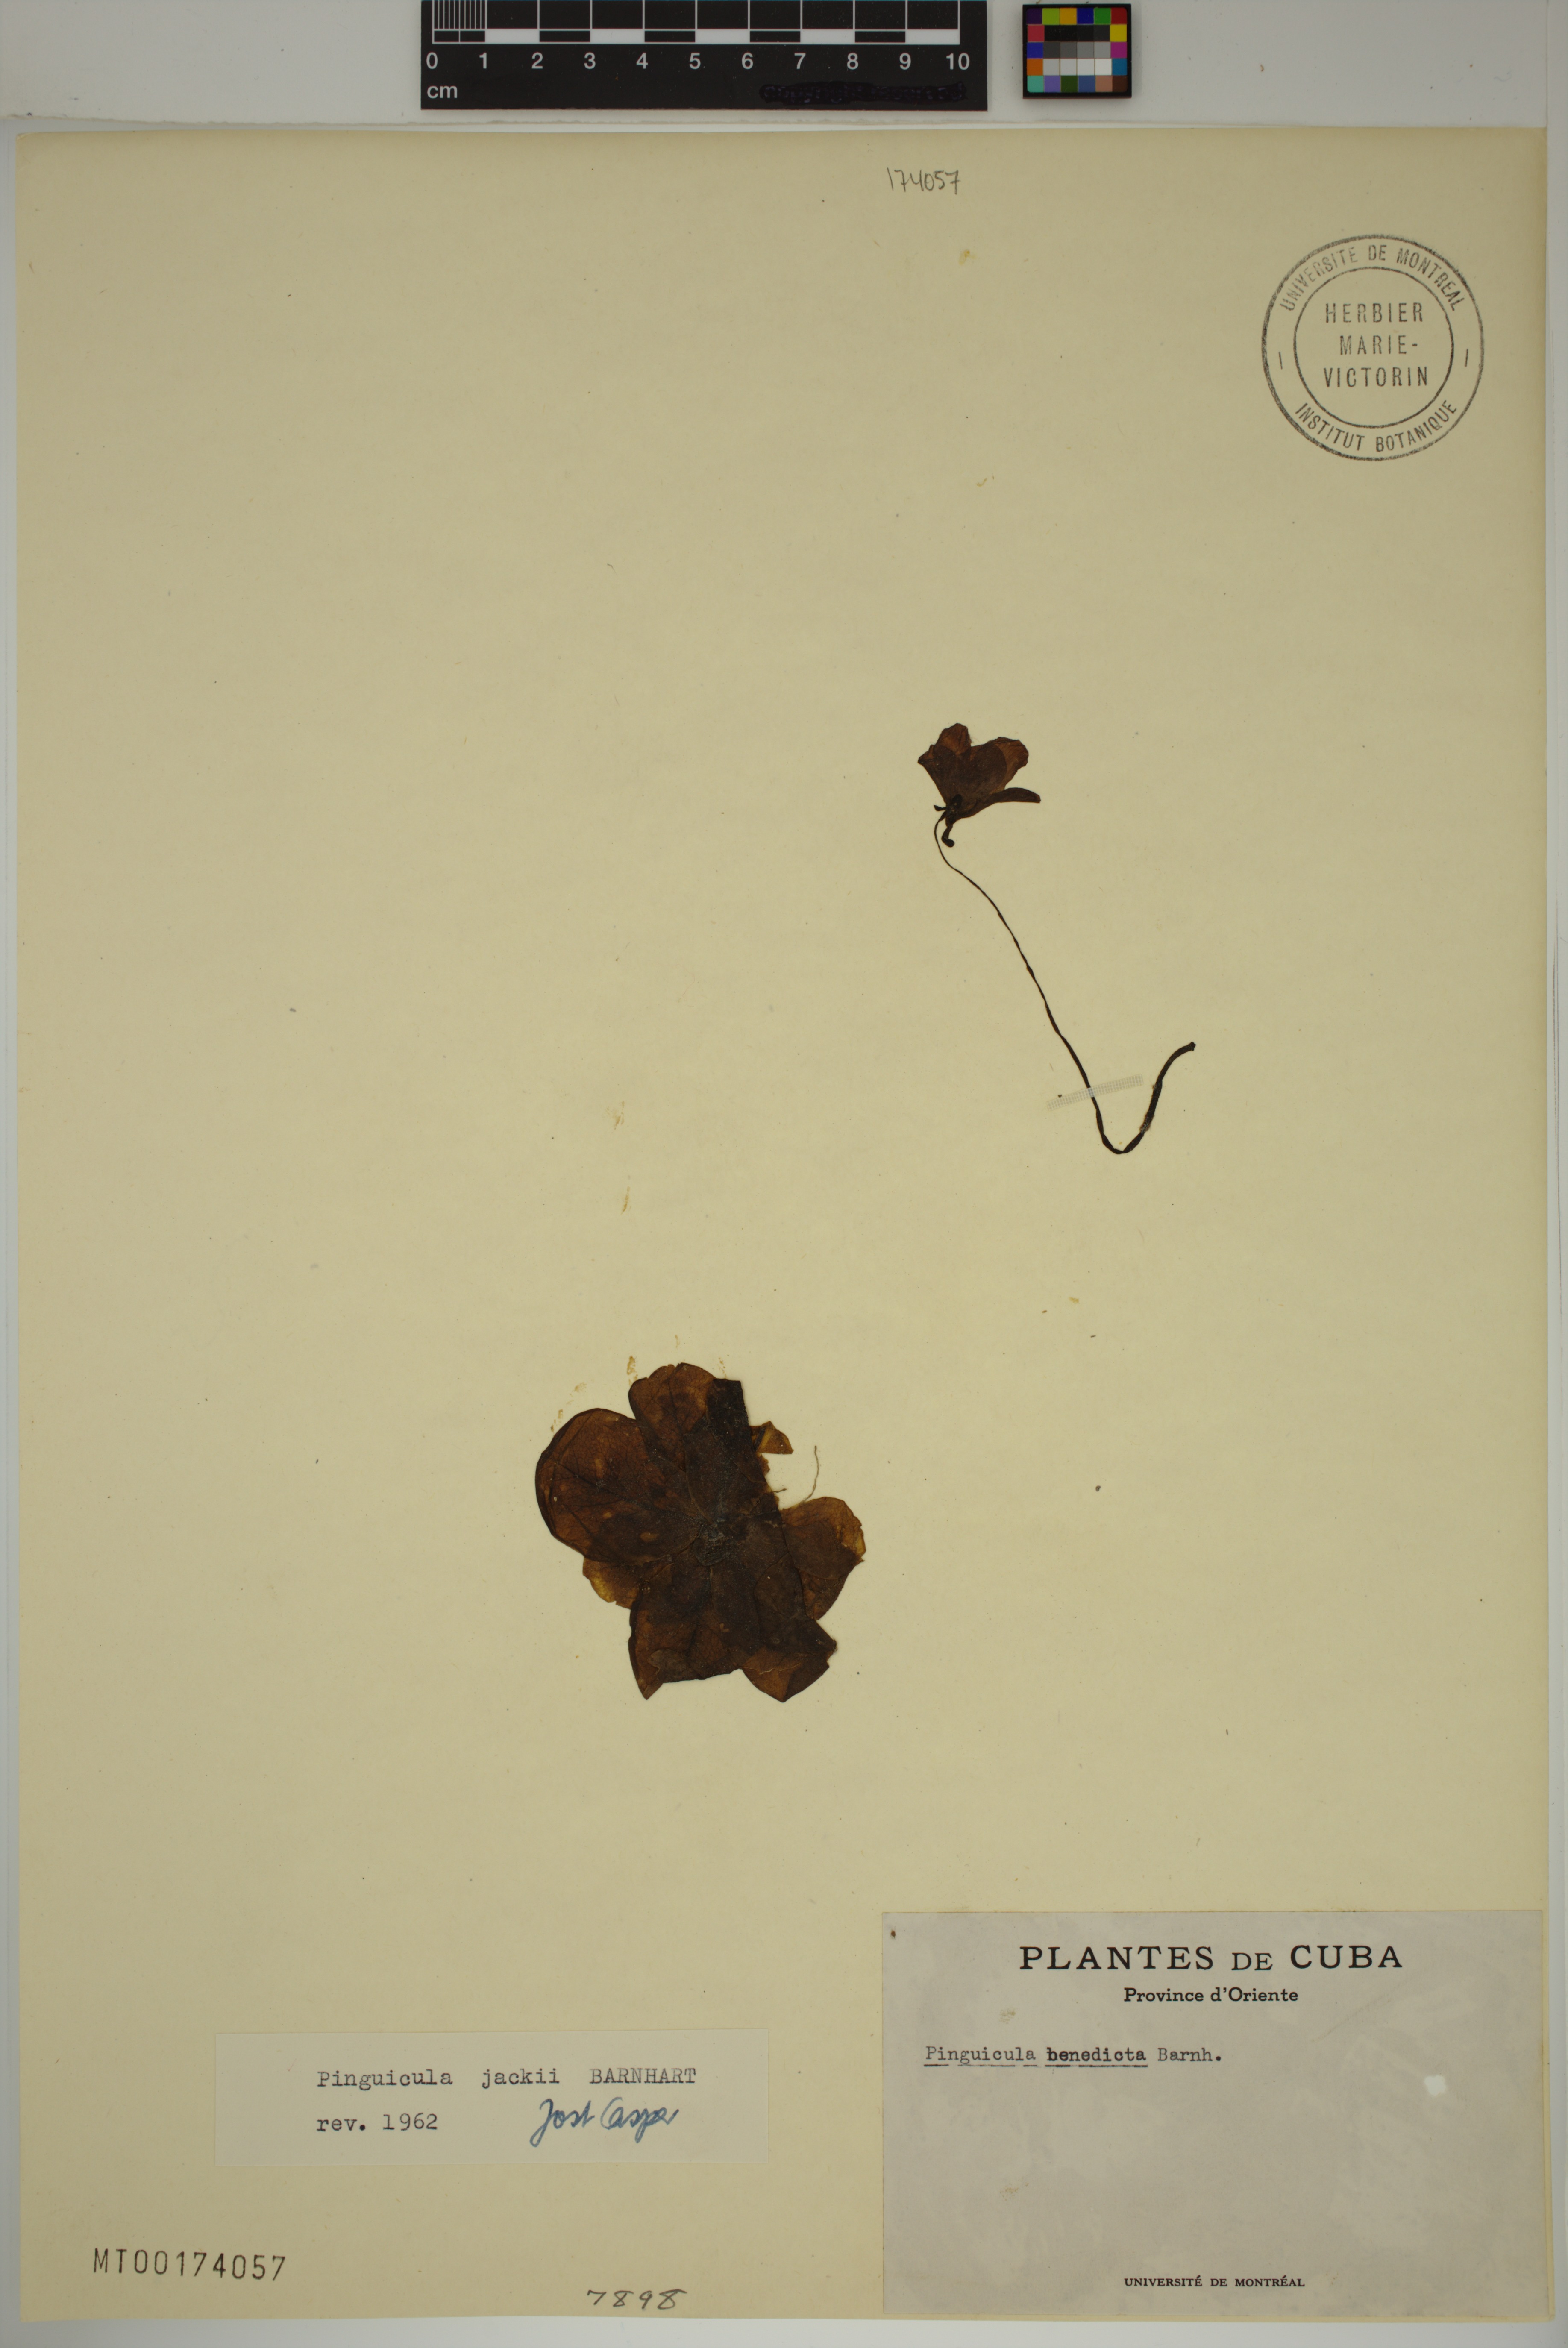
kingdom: Plantae
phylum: Tracheophyta
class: Magnoliopsida
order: Lamiales
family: Lentibulariaceae
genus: Pinguicula
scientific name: Pinguicula jackii
